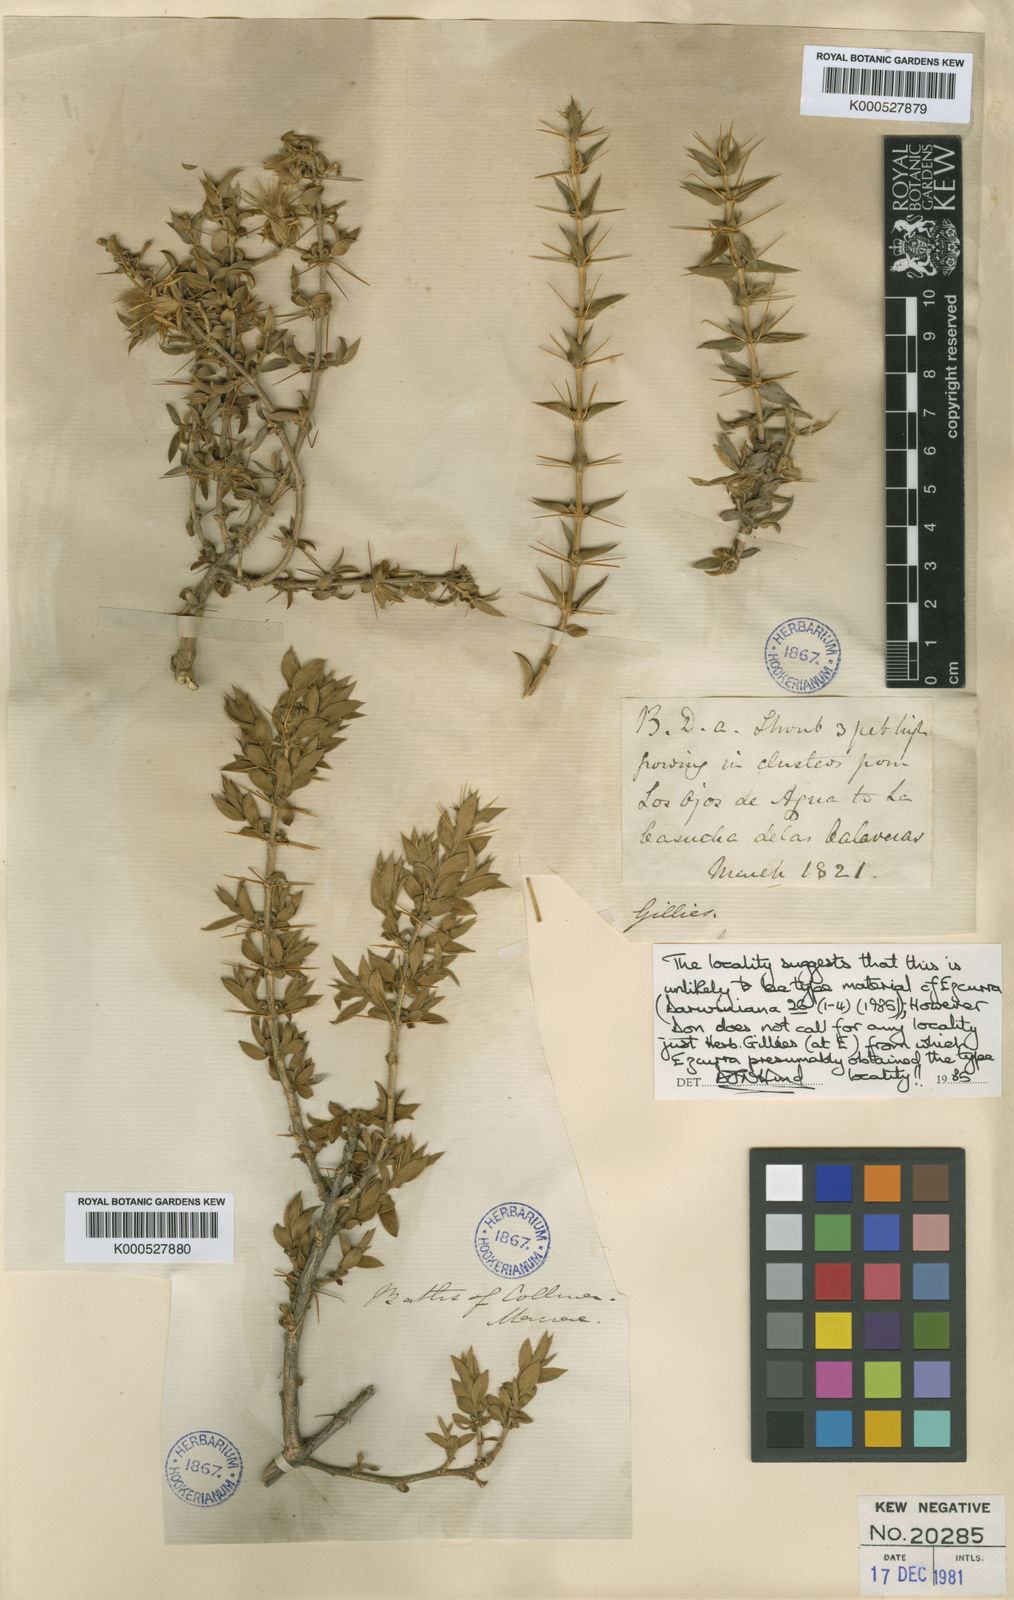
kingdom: Plantae
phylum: Tracheophyta
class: Magnoliopsida
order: Asterales
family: Asteraceae
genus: Chuquiraga
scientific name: Chuquiraga oppositifolia
